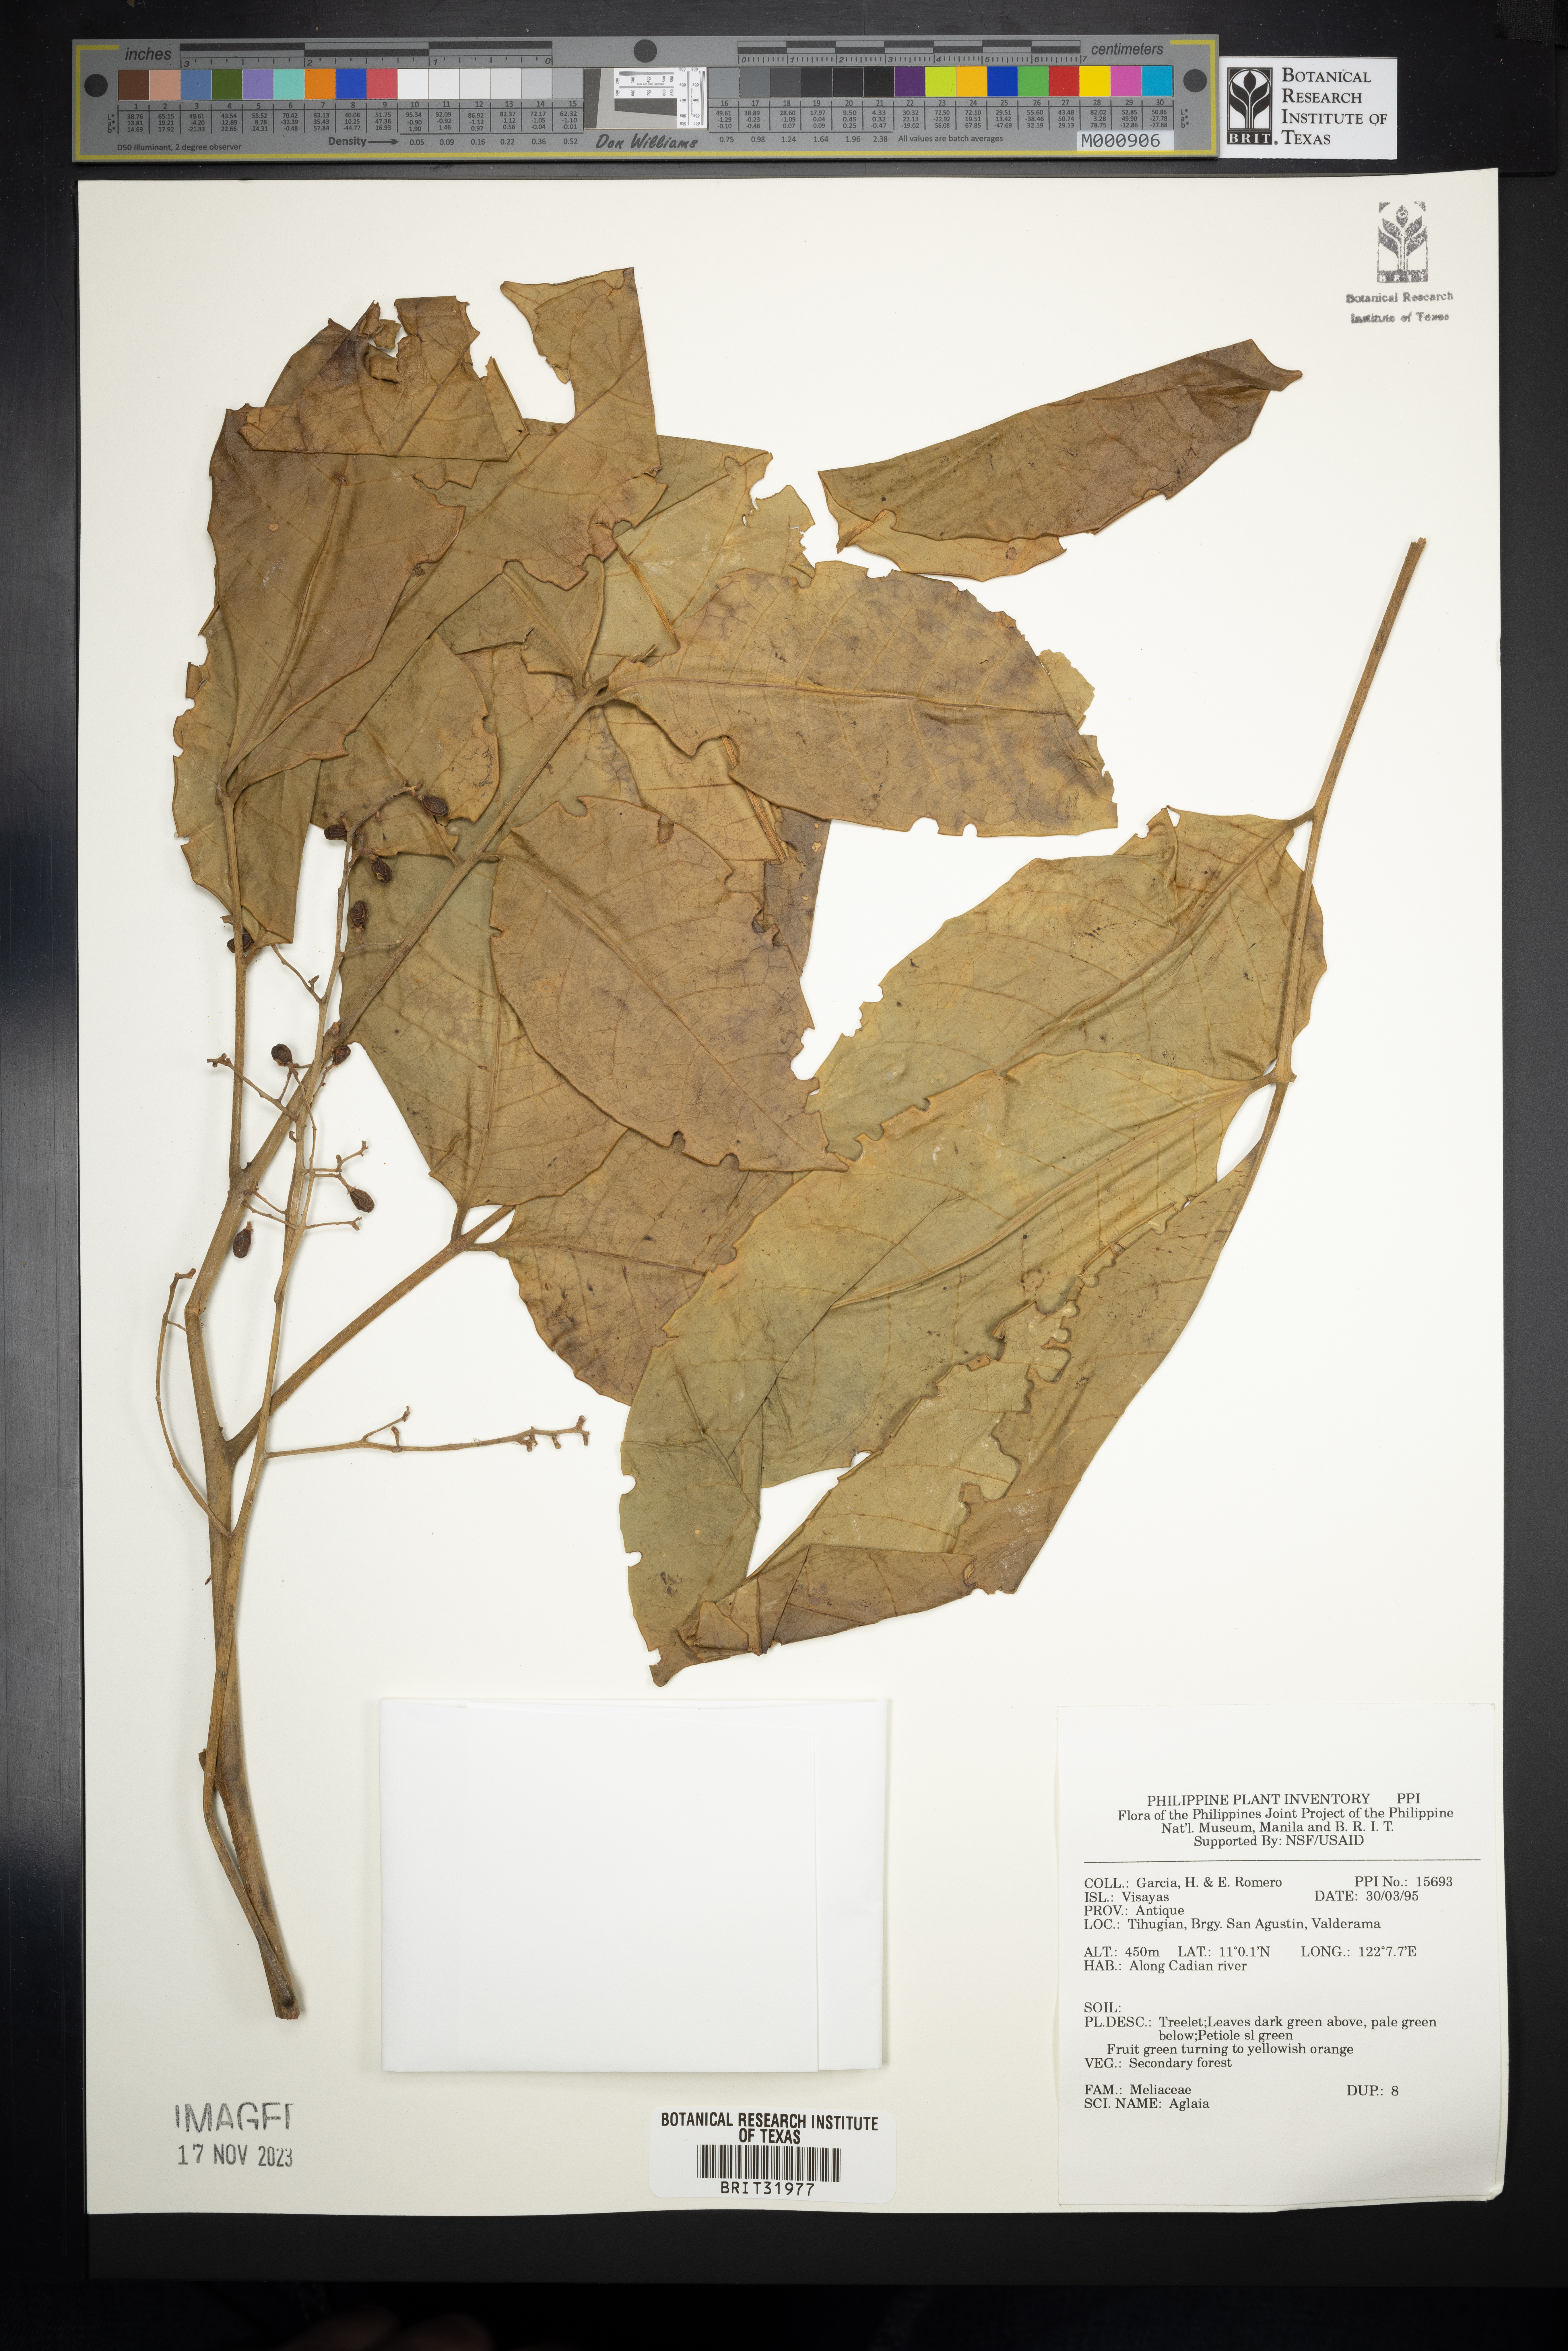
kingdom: Plantae
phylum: Tracheophyta
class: Magnoliopsida
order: Sapindales
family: Meliaceae
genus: Aglaia
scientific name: Aglaia
